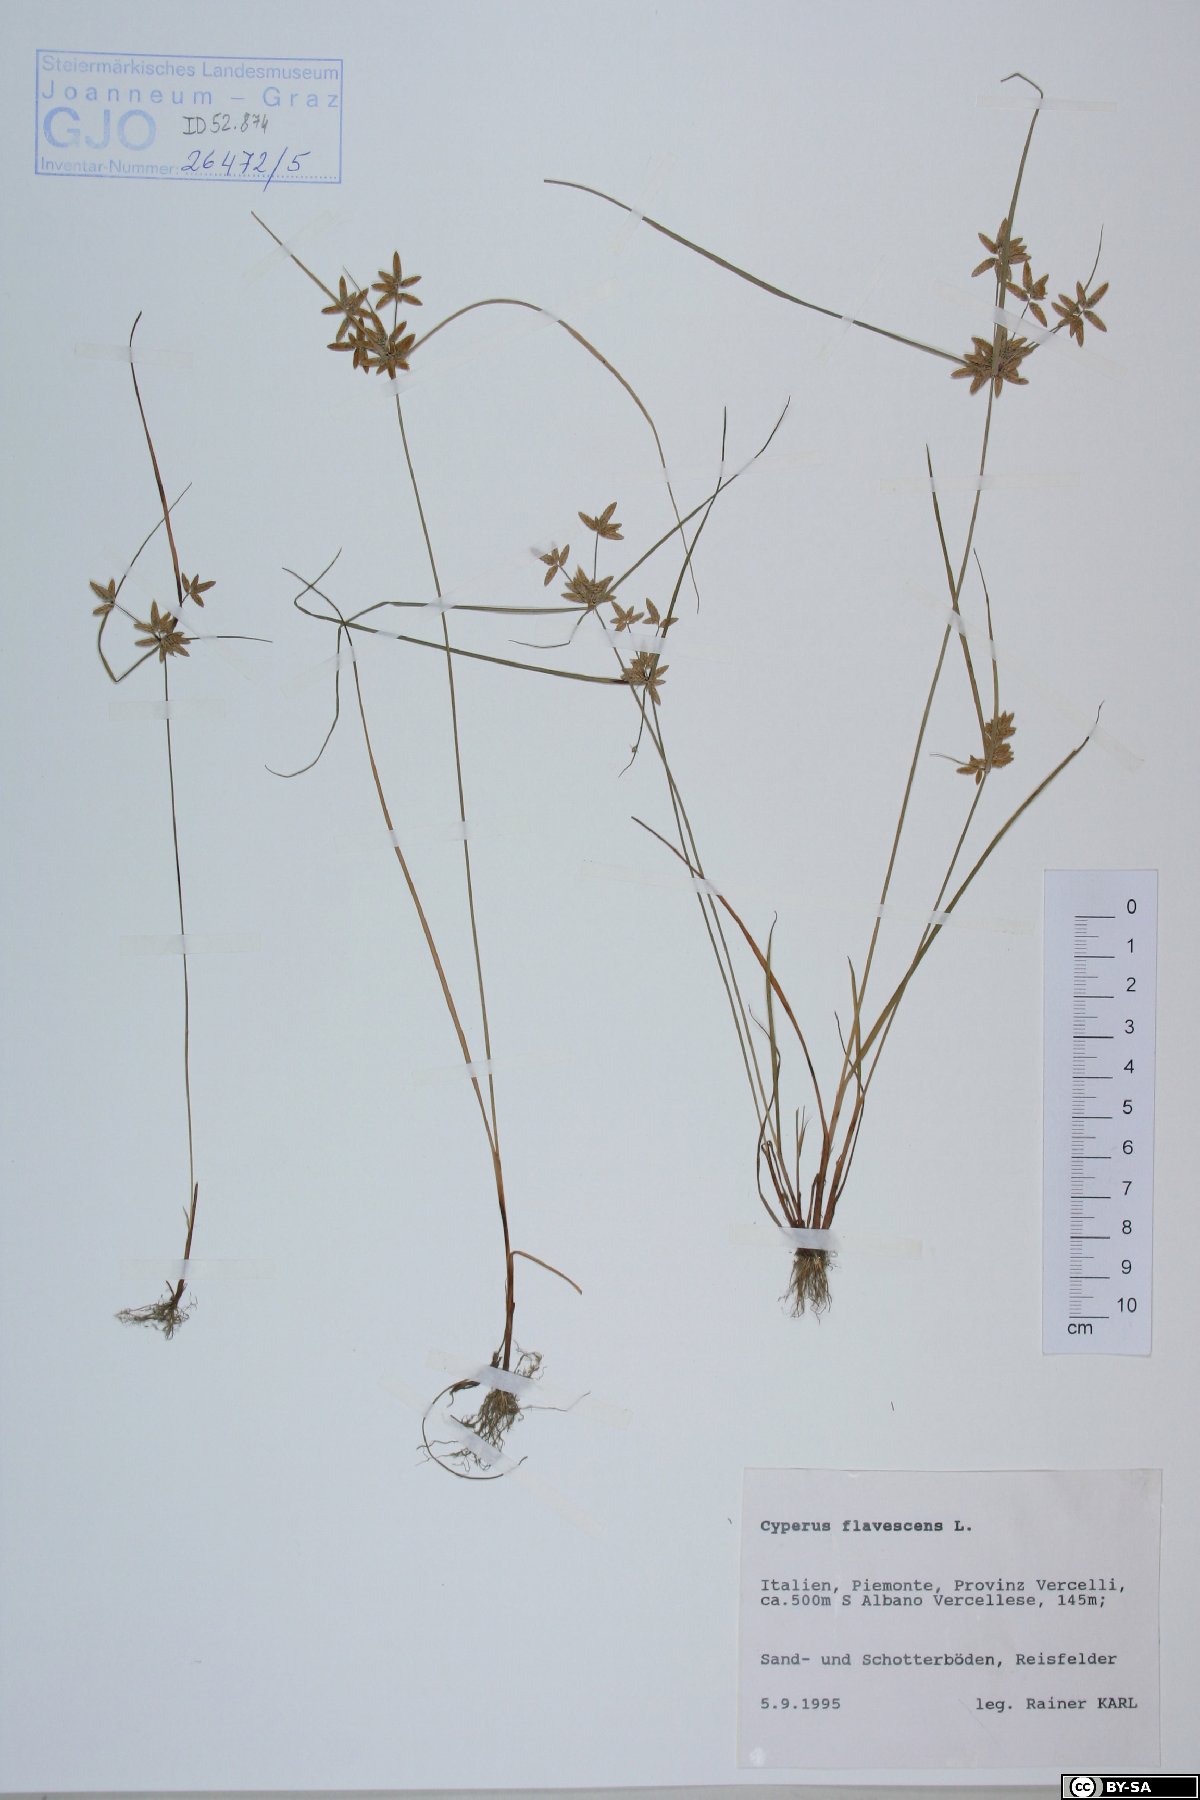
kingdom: Plantae
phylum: Tracheophyta
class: Liliopsida
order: Poales
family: Cyperaceae
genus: Cyperus
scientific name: Cyperus flavescens
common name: Yellow galingale
